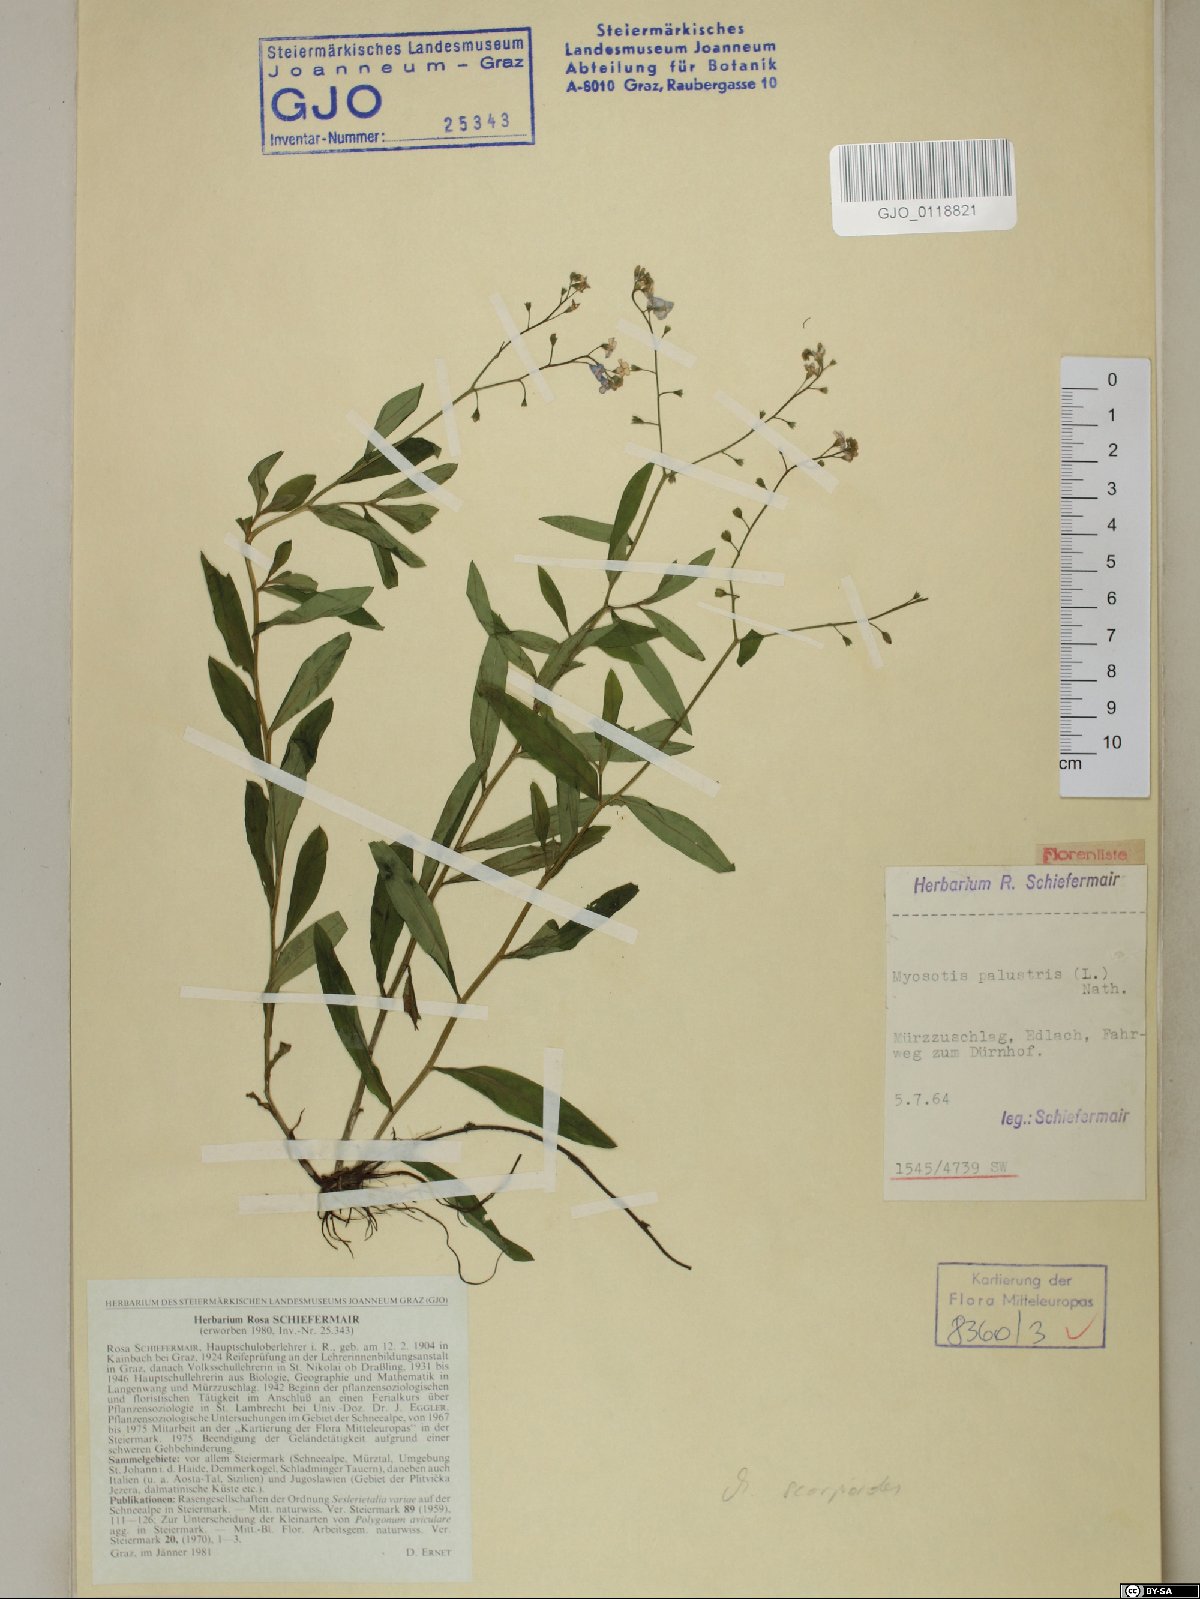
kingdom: Plantae
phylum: Tracheophyta
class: Magnoliopsida
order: Boraginales
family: Boraginaceae
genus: Myosotis
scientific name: Myosotis scorpioides
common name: Water forget-me-not
